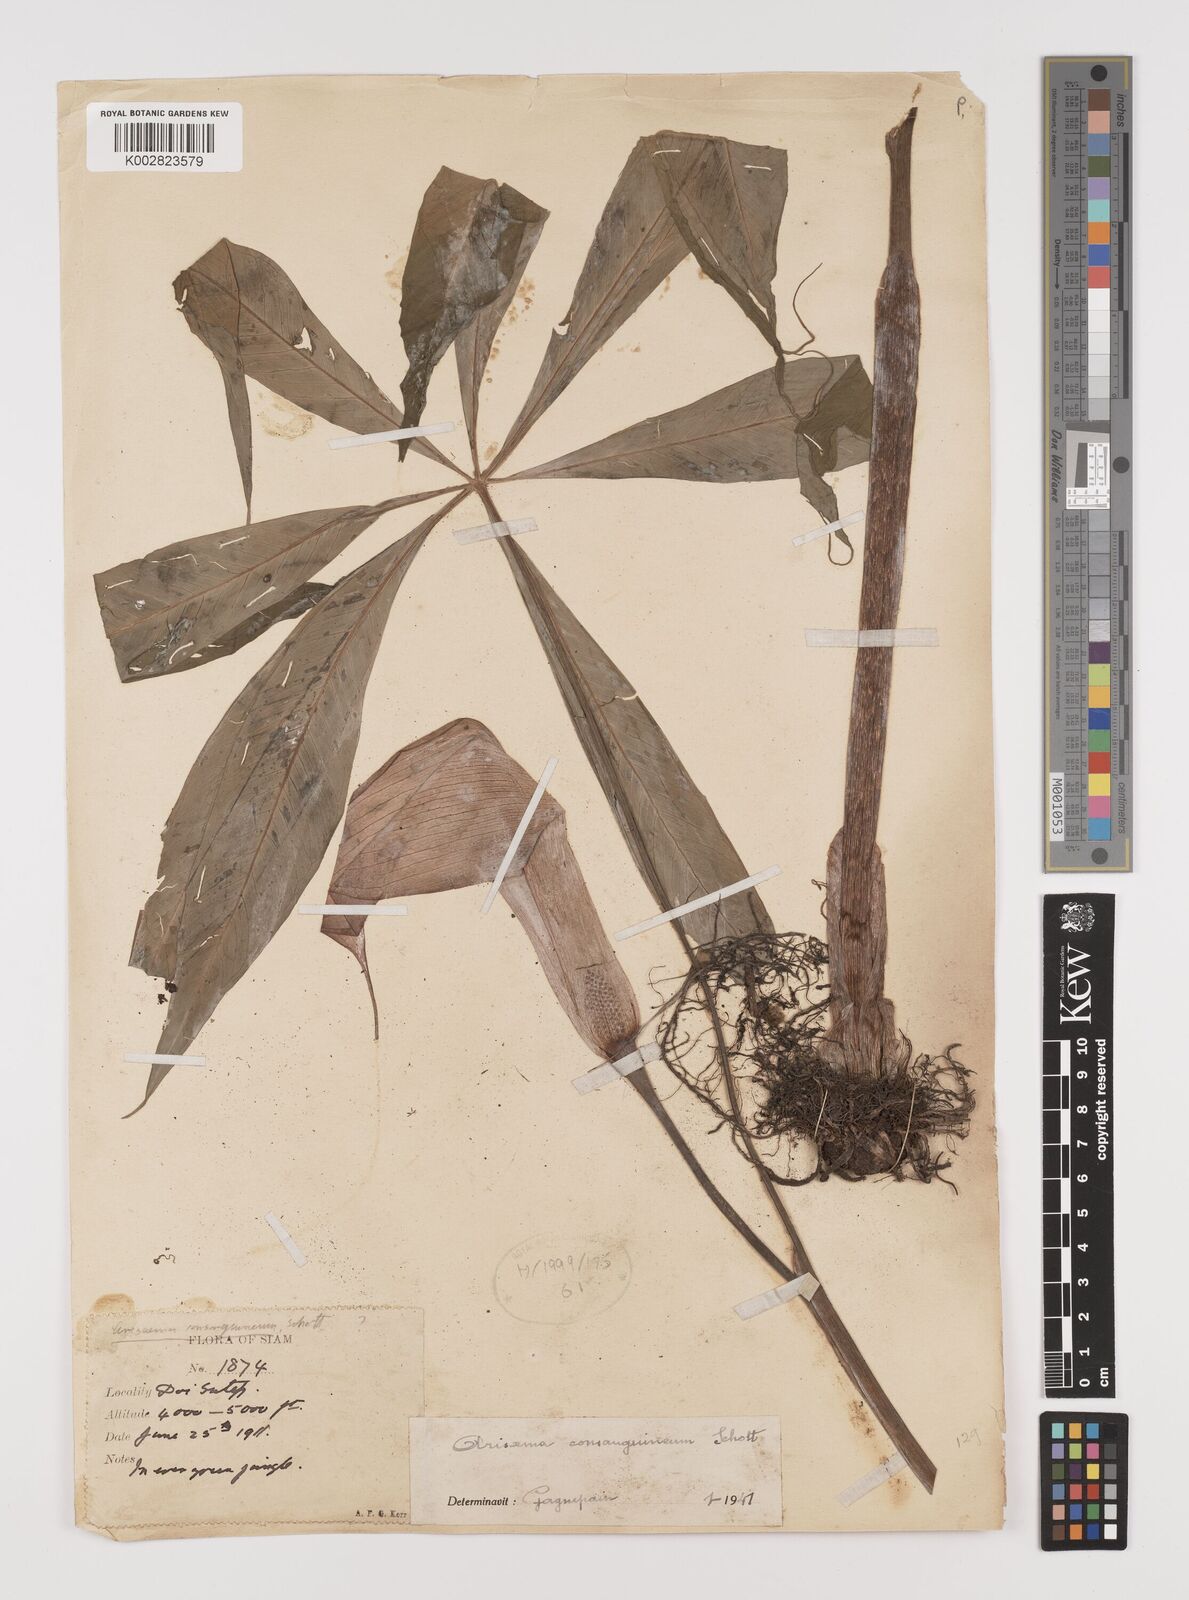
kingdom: Plantae
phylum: Tracheophyta
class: Liliopsida
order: Alismatales
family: Araceae
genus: Arisaema
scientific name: Arisaema consanguineum
